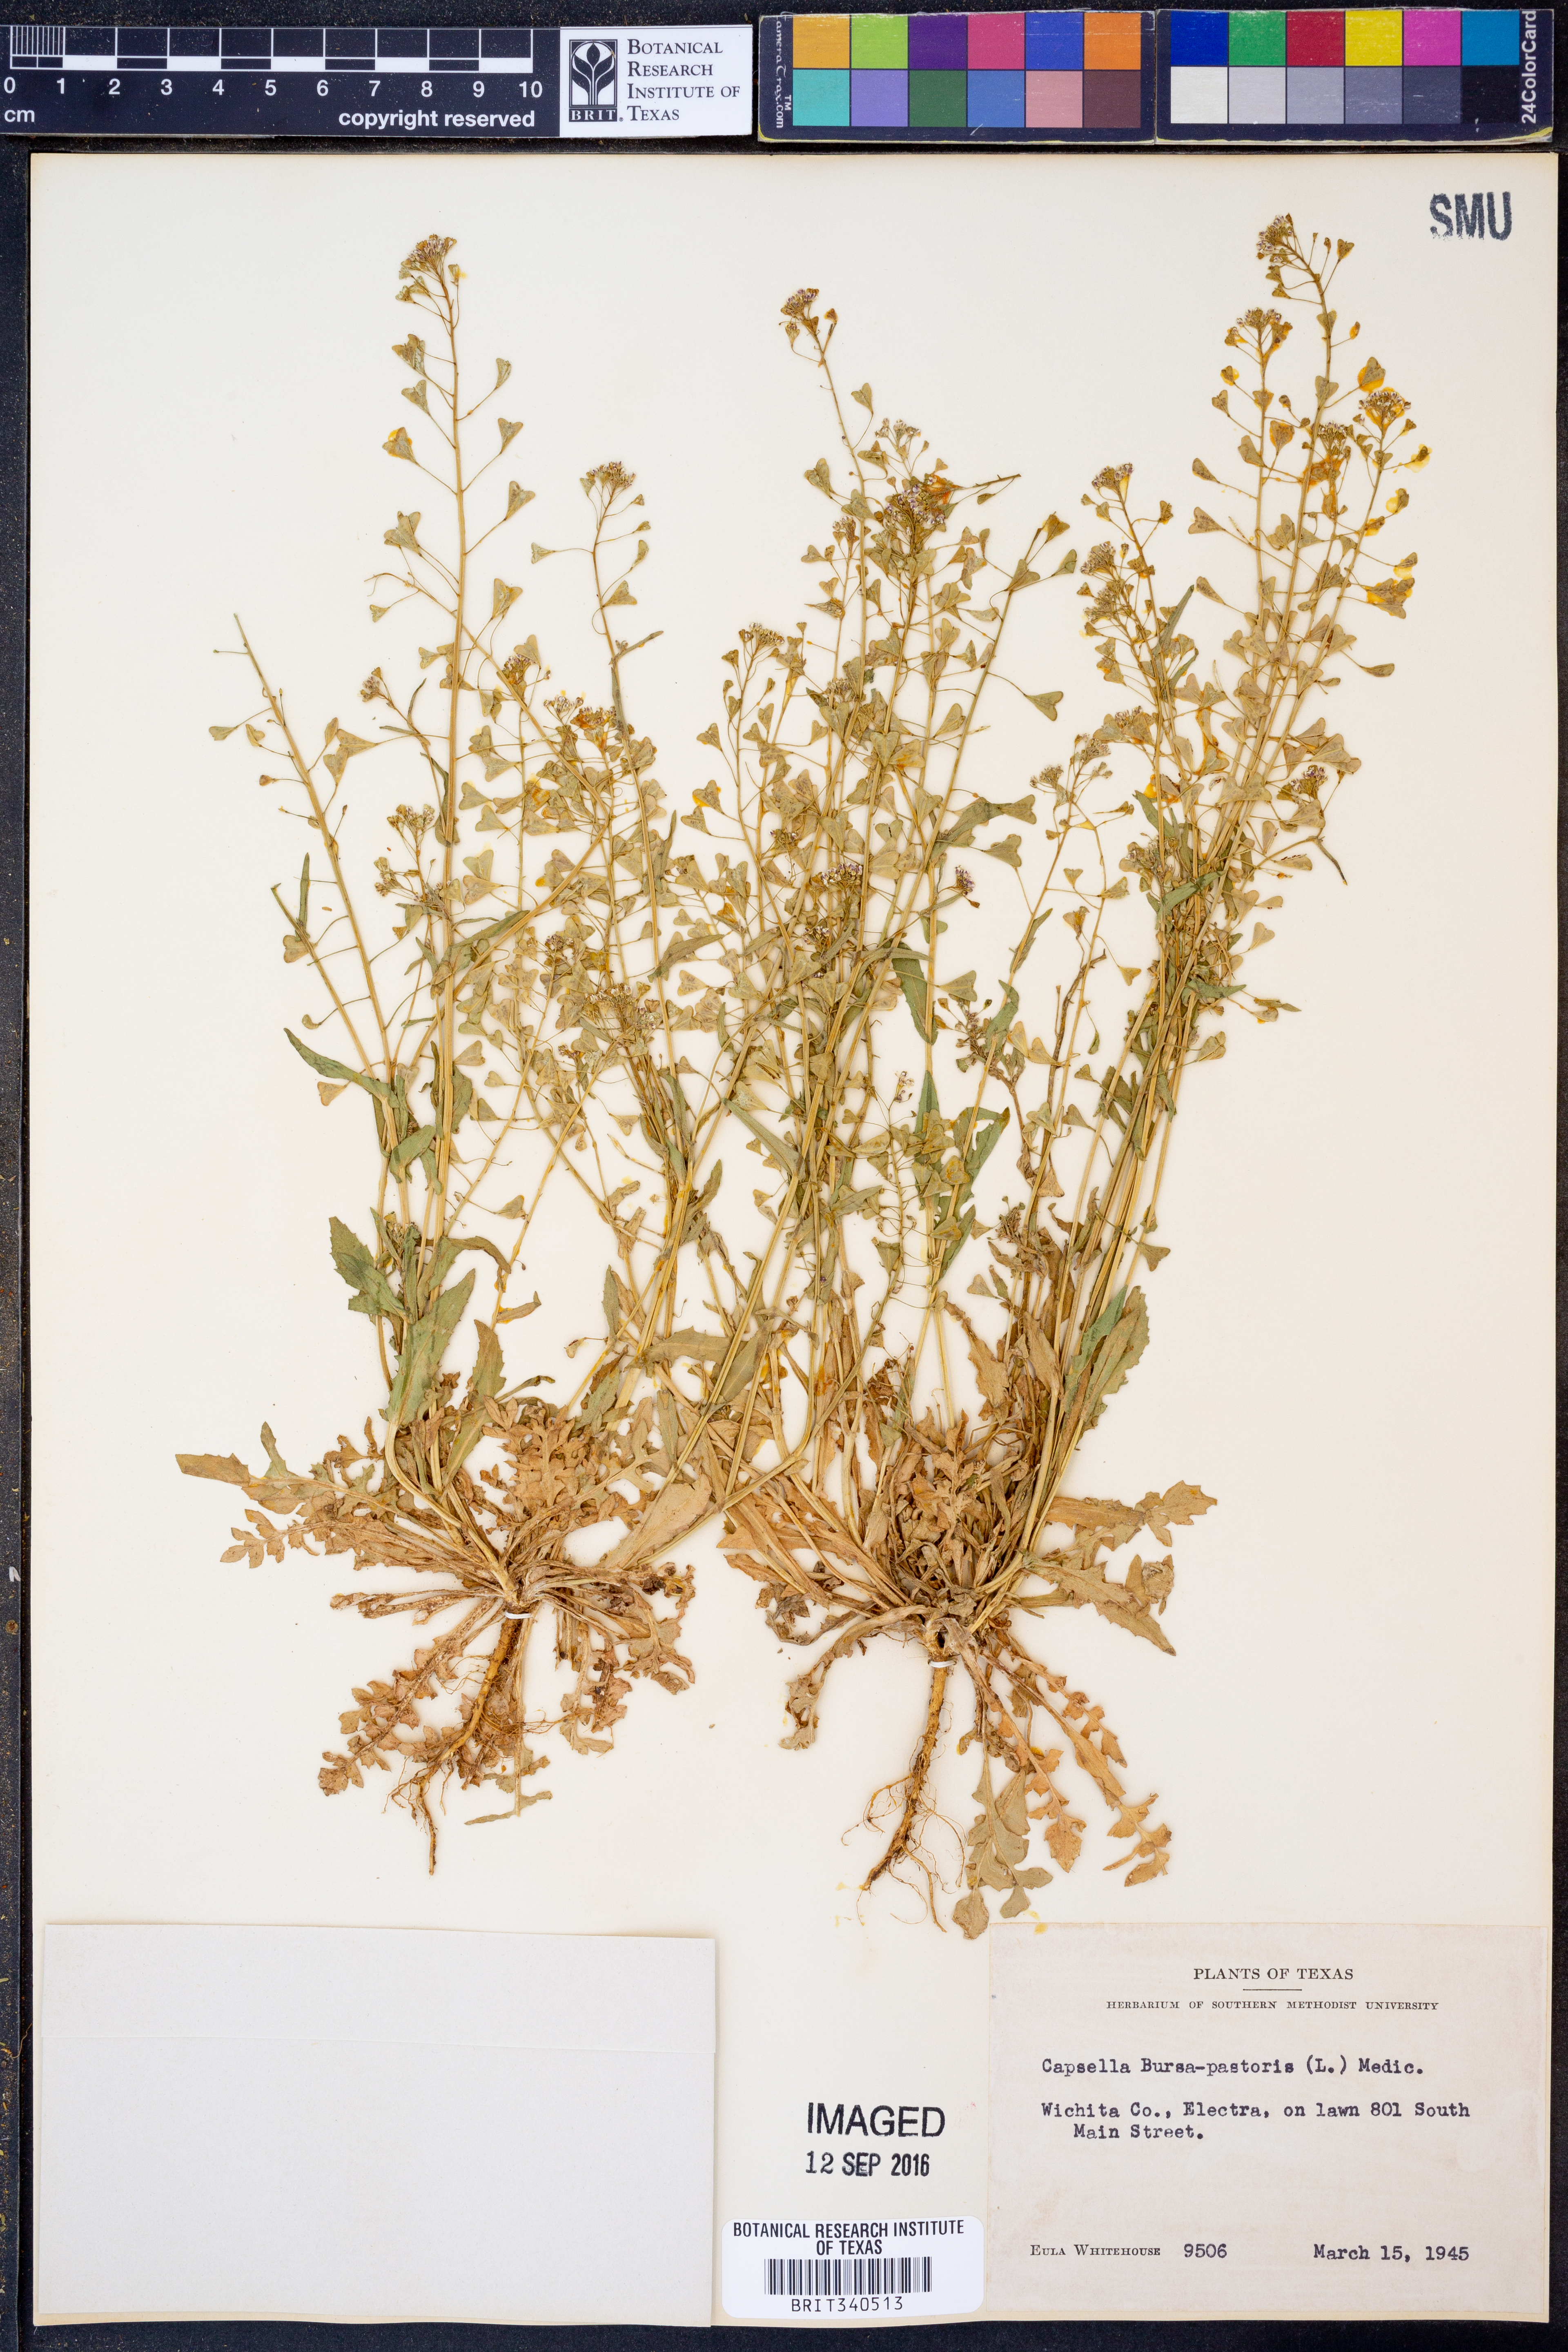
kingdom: Plantae
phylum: Tracheophyta
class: Magnoliopsida
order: Brassicales
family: Brassicaceae
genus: Capsella
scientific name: Capsella bursa-pastoris
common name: Shepherd's purse
